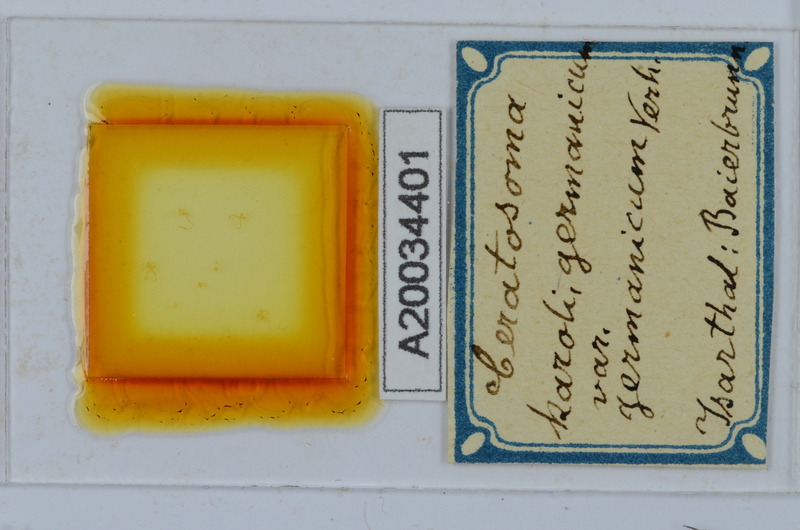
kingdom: Animalia
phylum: Arthropoda
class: Diplopoda
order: Chordeumatida
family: Craspedosomatidae
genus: Ochogona
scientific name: Ochogona caroli
